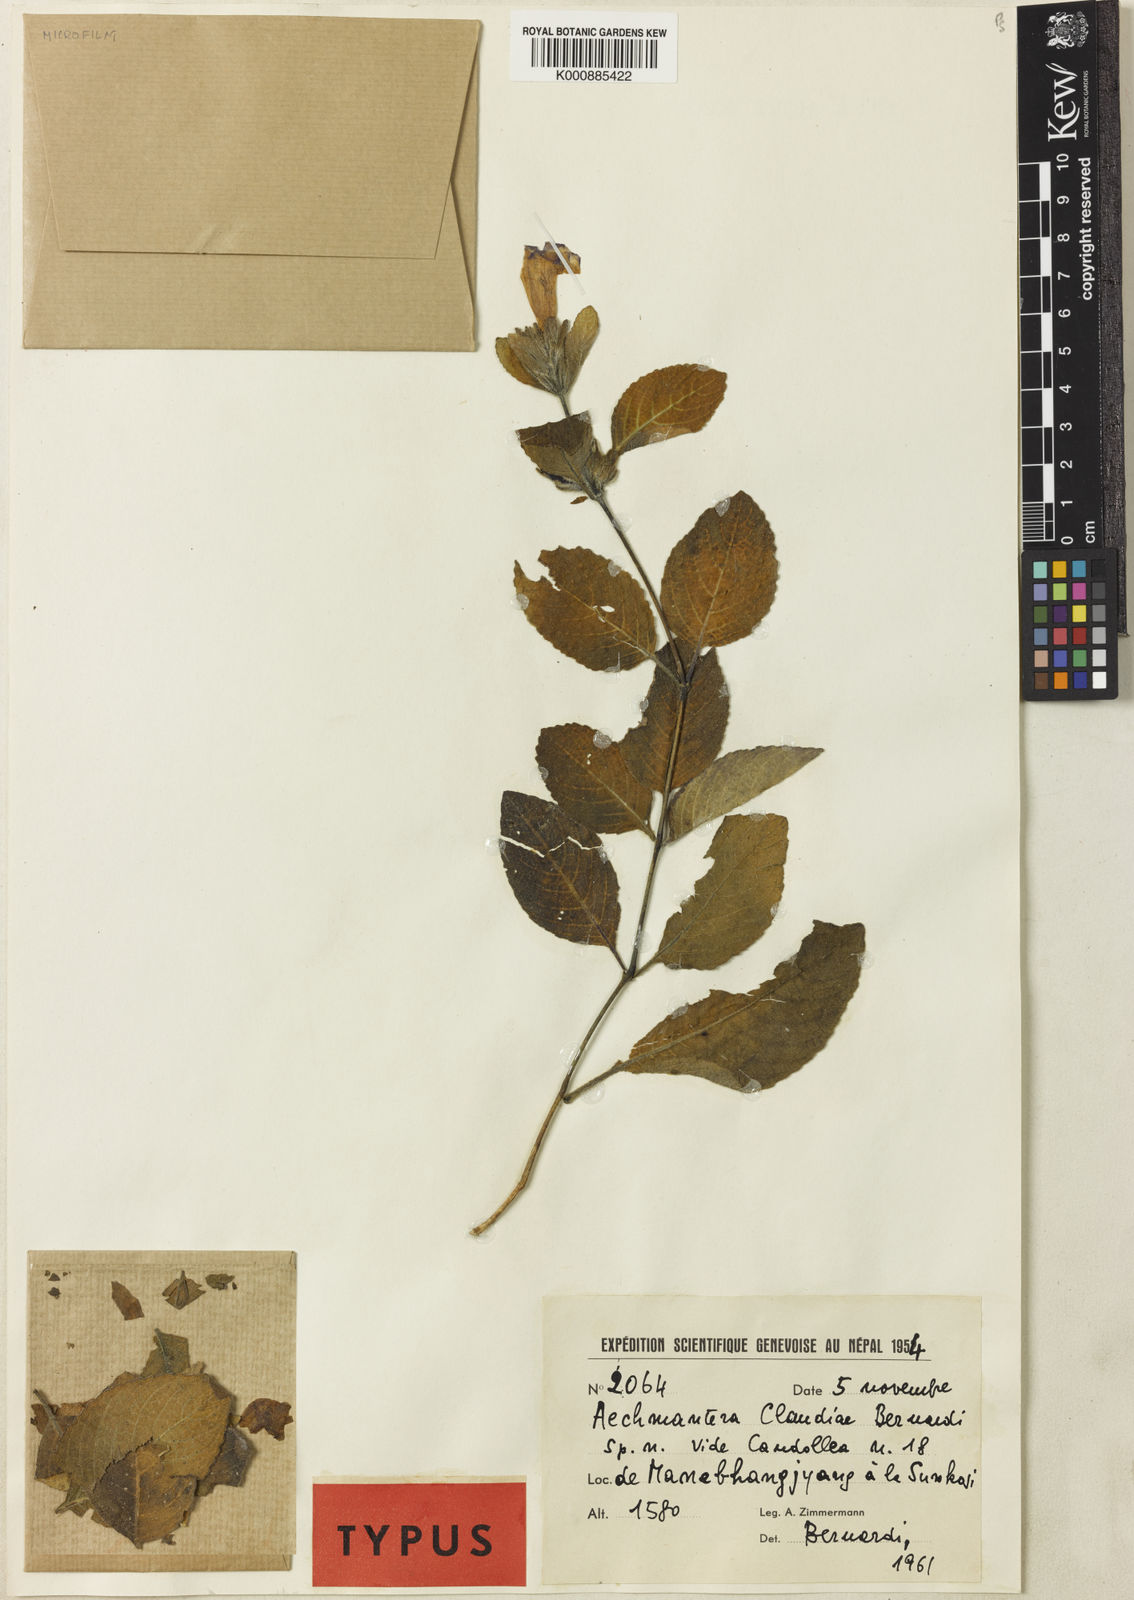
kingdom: Plantae
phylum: Tracheophyta
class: Magnoliopsida
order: Lamiales
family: Acanthaceae
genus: Strobilanthes
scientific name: Strobilanthes tomentosa
